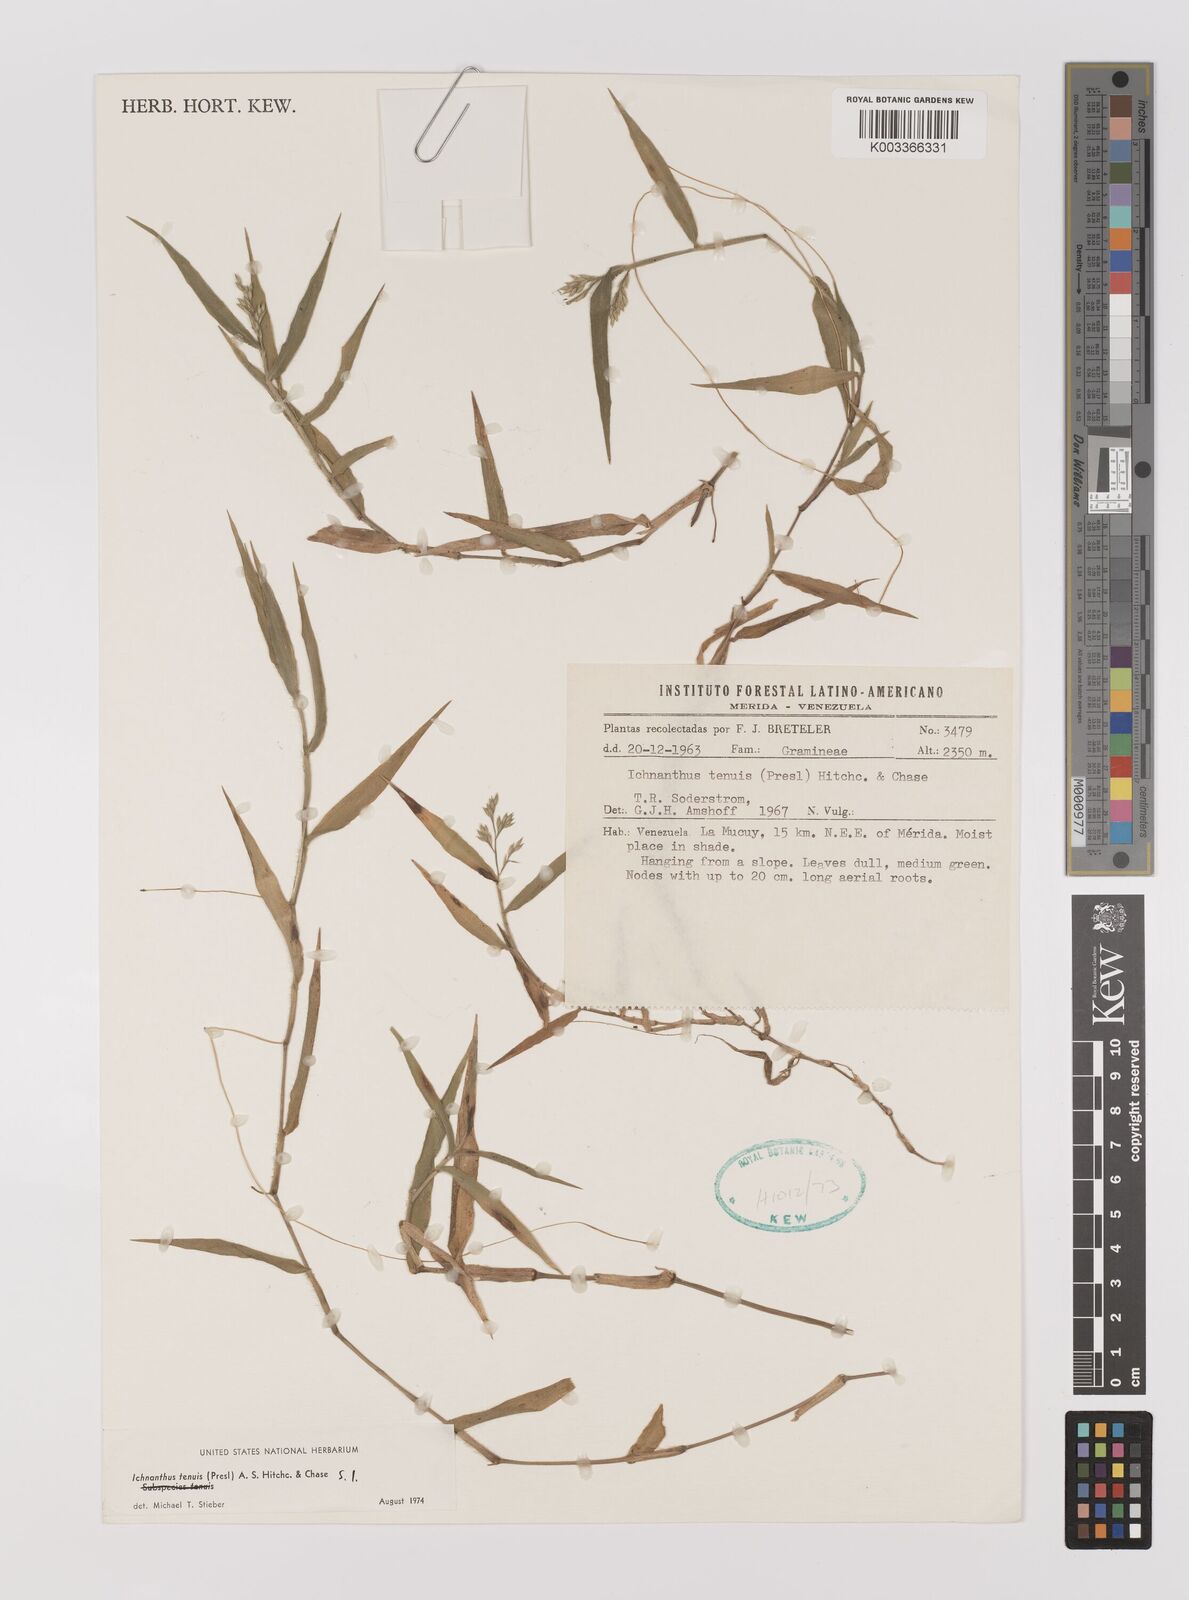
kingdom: Plantae
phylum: Tracheophyta
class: Liliopsida
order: Poales
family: Poaceae
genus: Ichnanthus
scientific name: Ichnanthus tenuis
